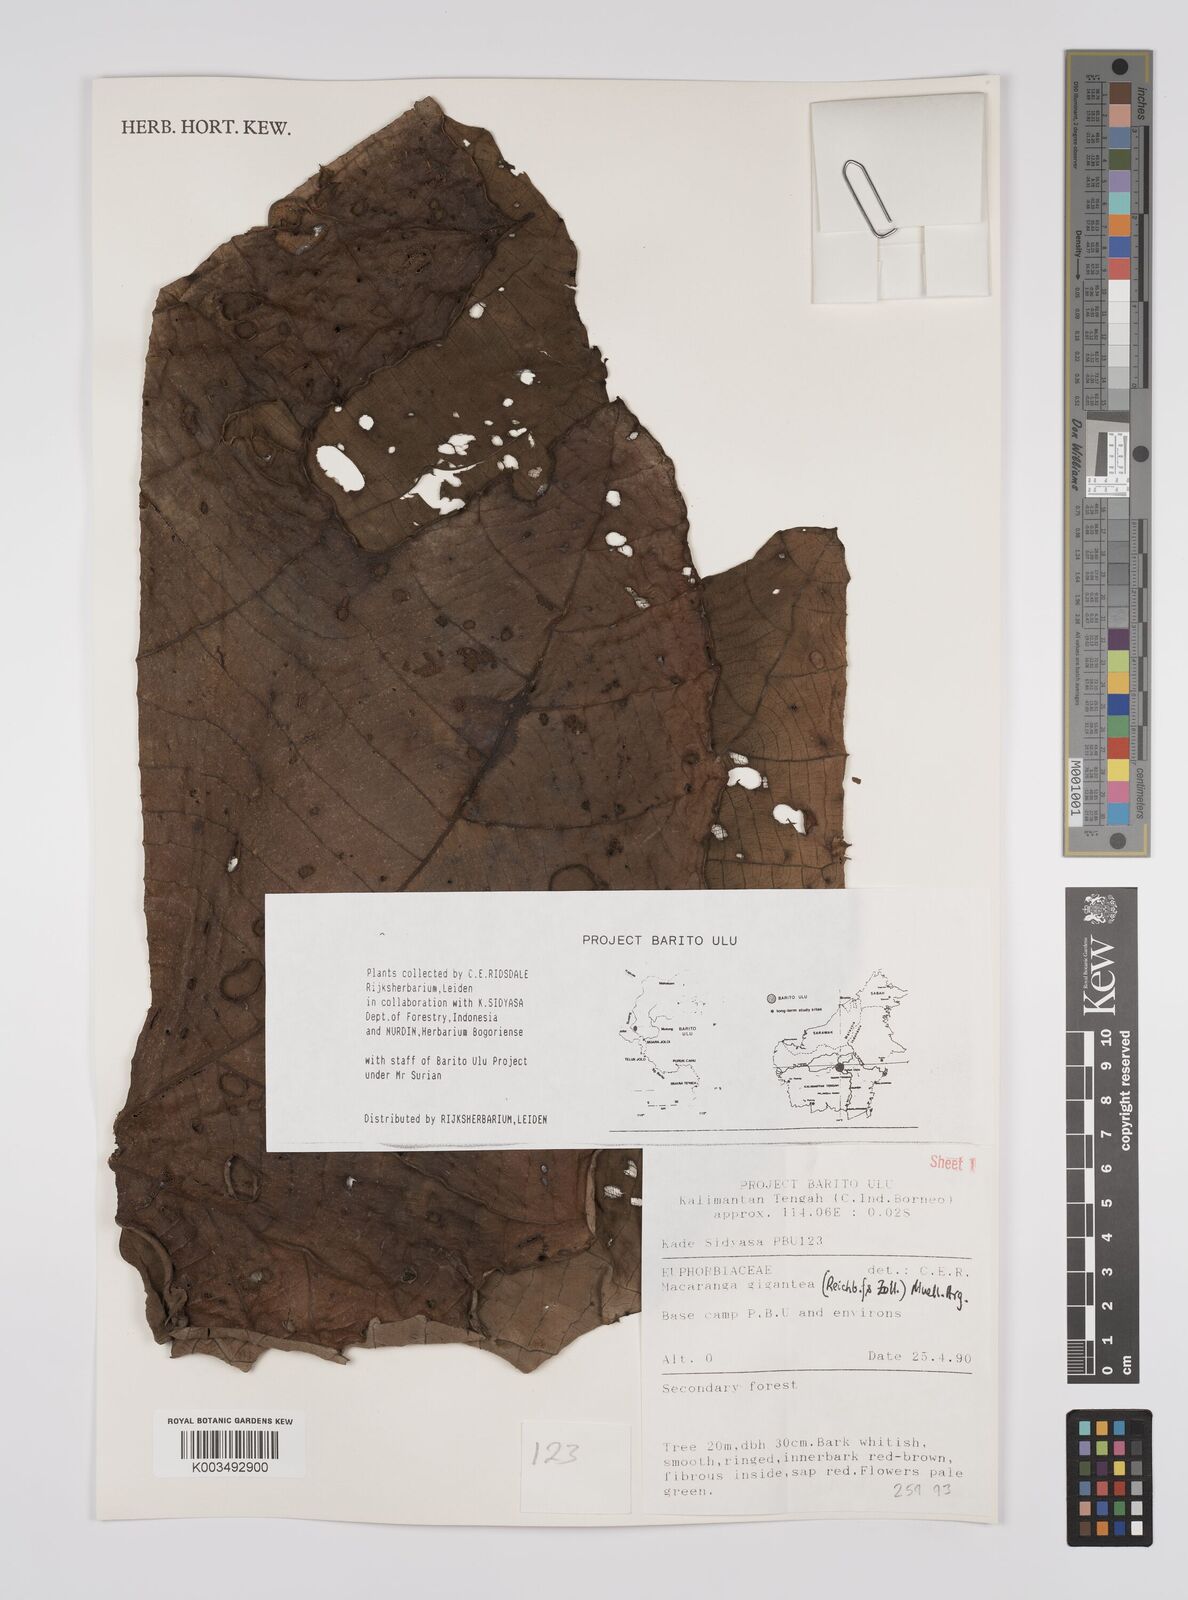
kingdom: Plantae
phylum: Tracheophyta
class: Magnoliopsida
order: Malpighiales
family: Euphorbiaceae
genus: Macaranga
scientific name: Macaranga gigantea
